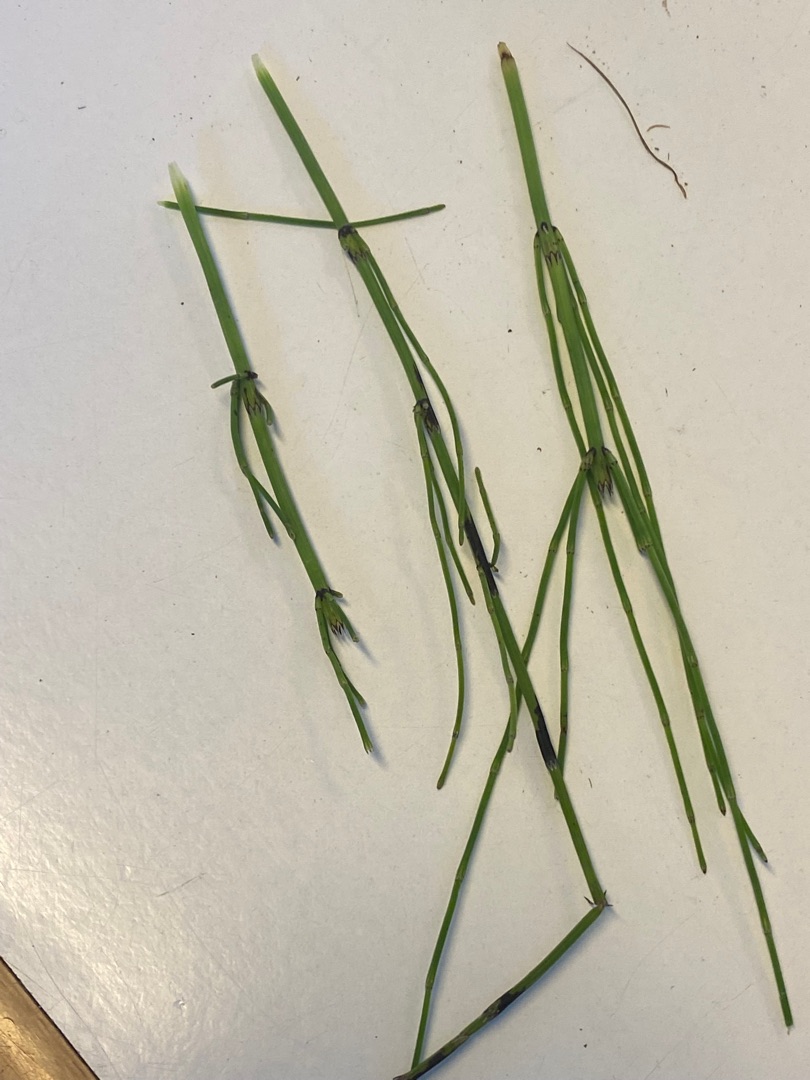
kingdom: Plantae
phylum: Tracheophyta
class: Polypodiopsida
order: Equisetales
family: Equisetaceae
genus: Equisetum
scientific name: Equisetum palustre
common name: Kær-padderok
